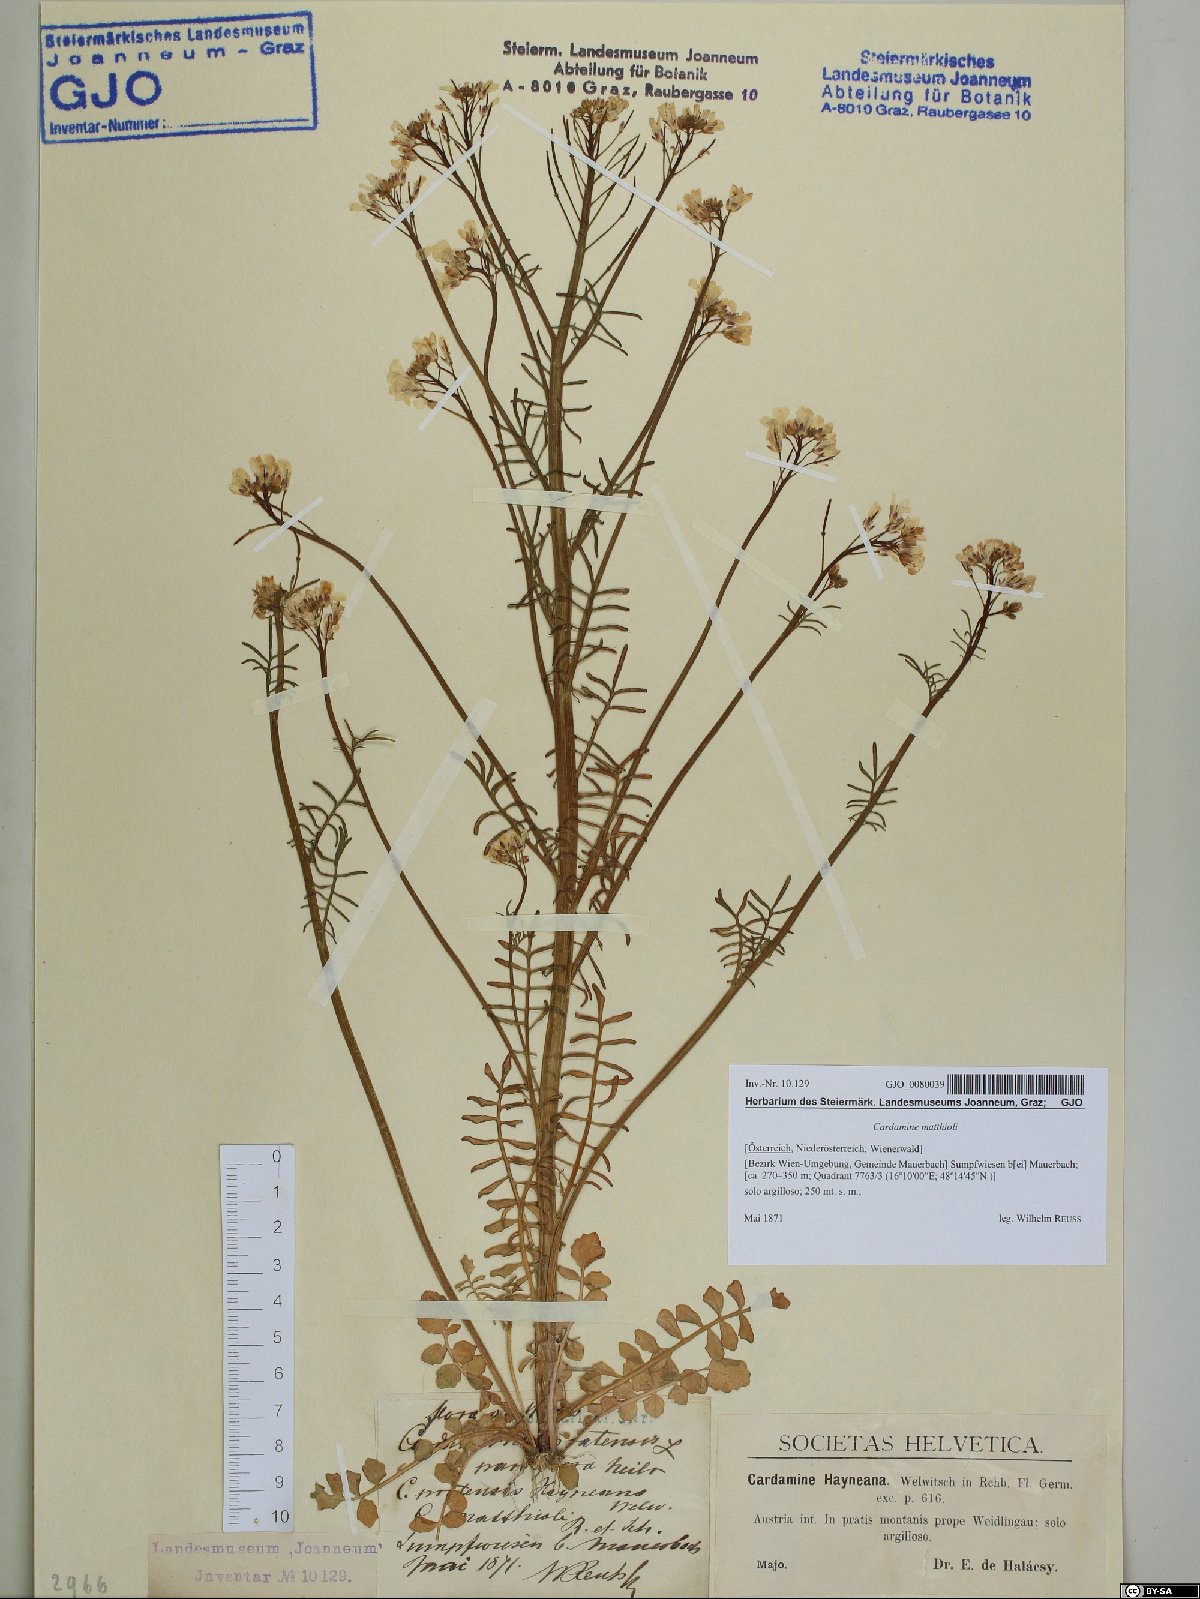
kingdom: Plantae
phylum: Tracheophyta
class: Magnoliopsida
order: Brassicales
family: Brassicaceae
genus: Cardamine
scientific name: Cardamine matthioli
